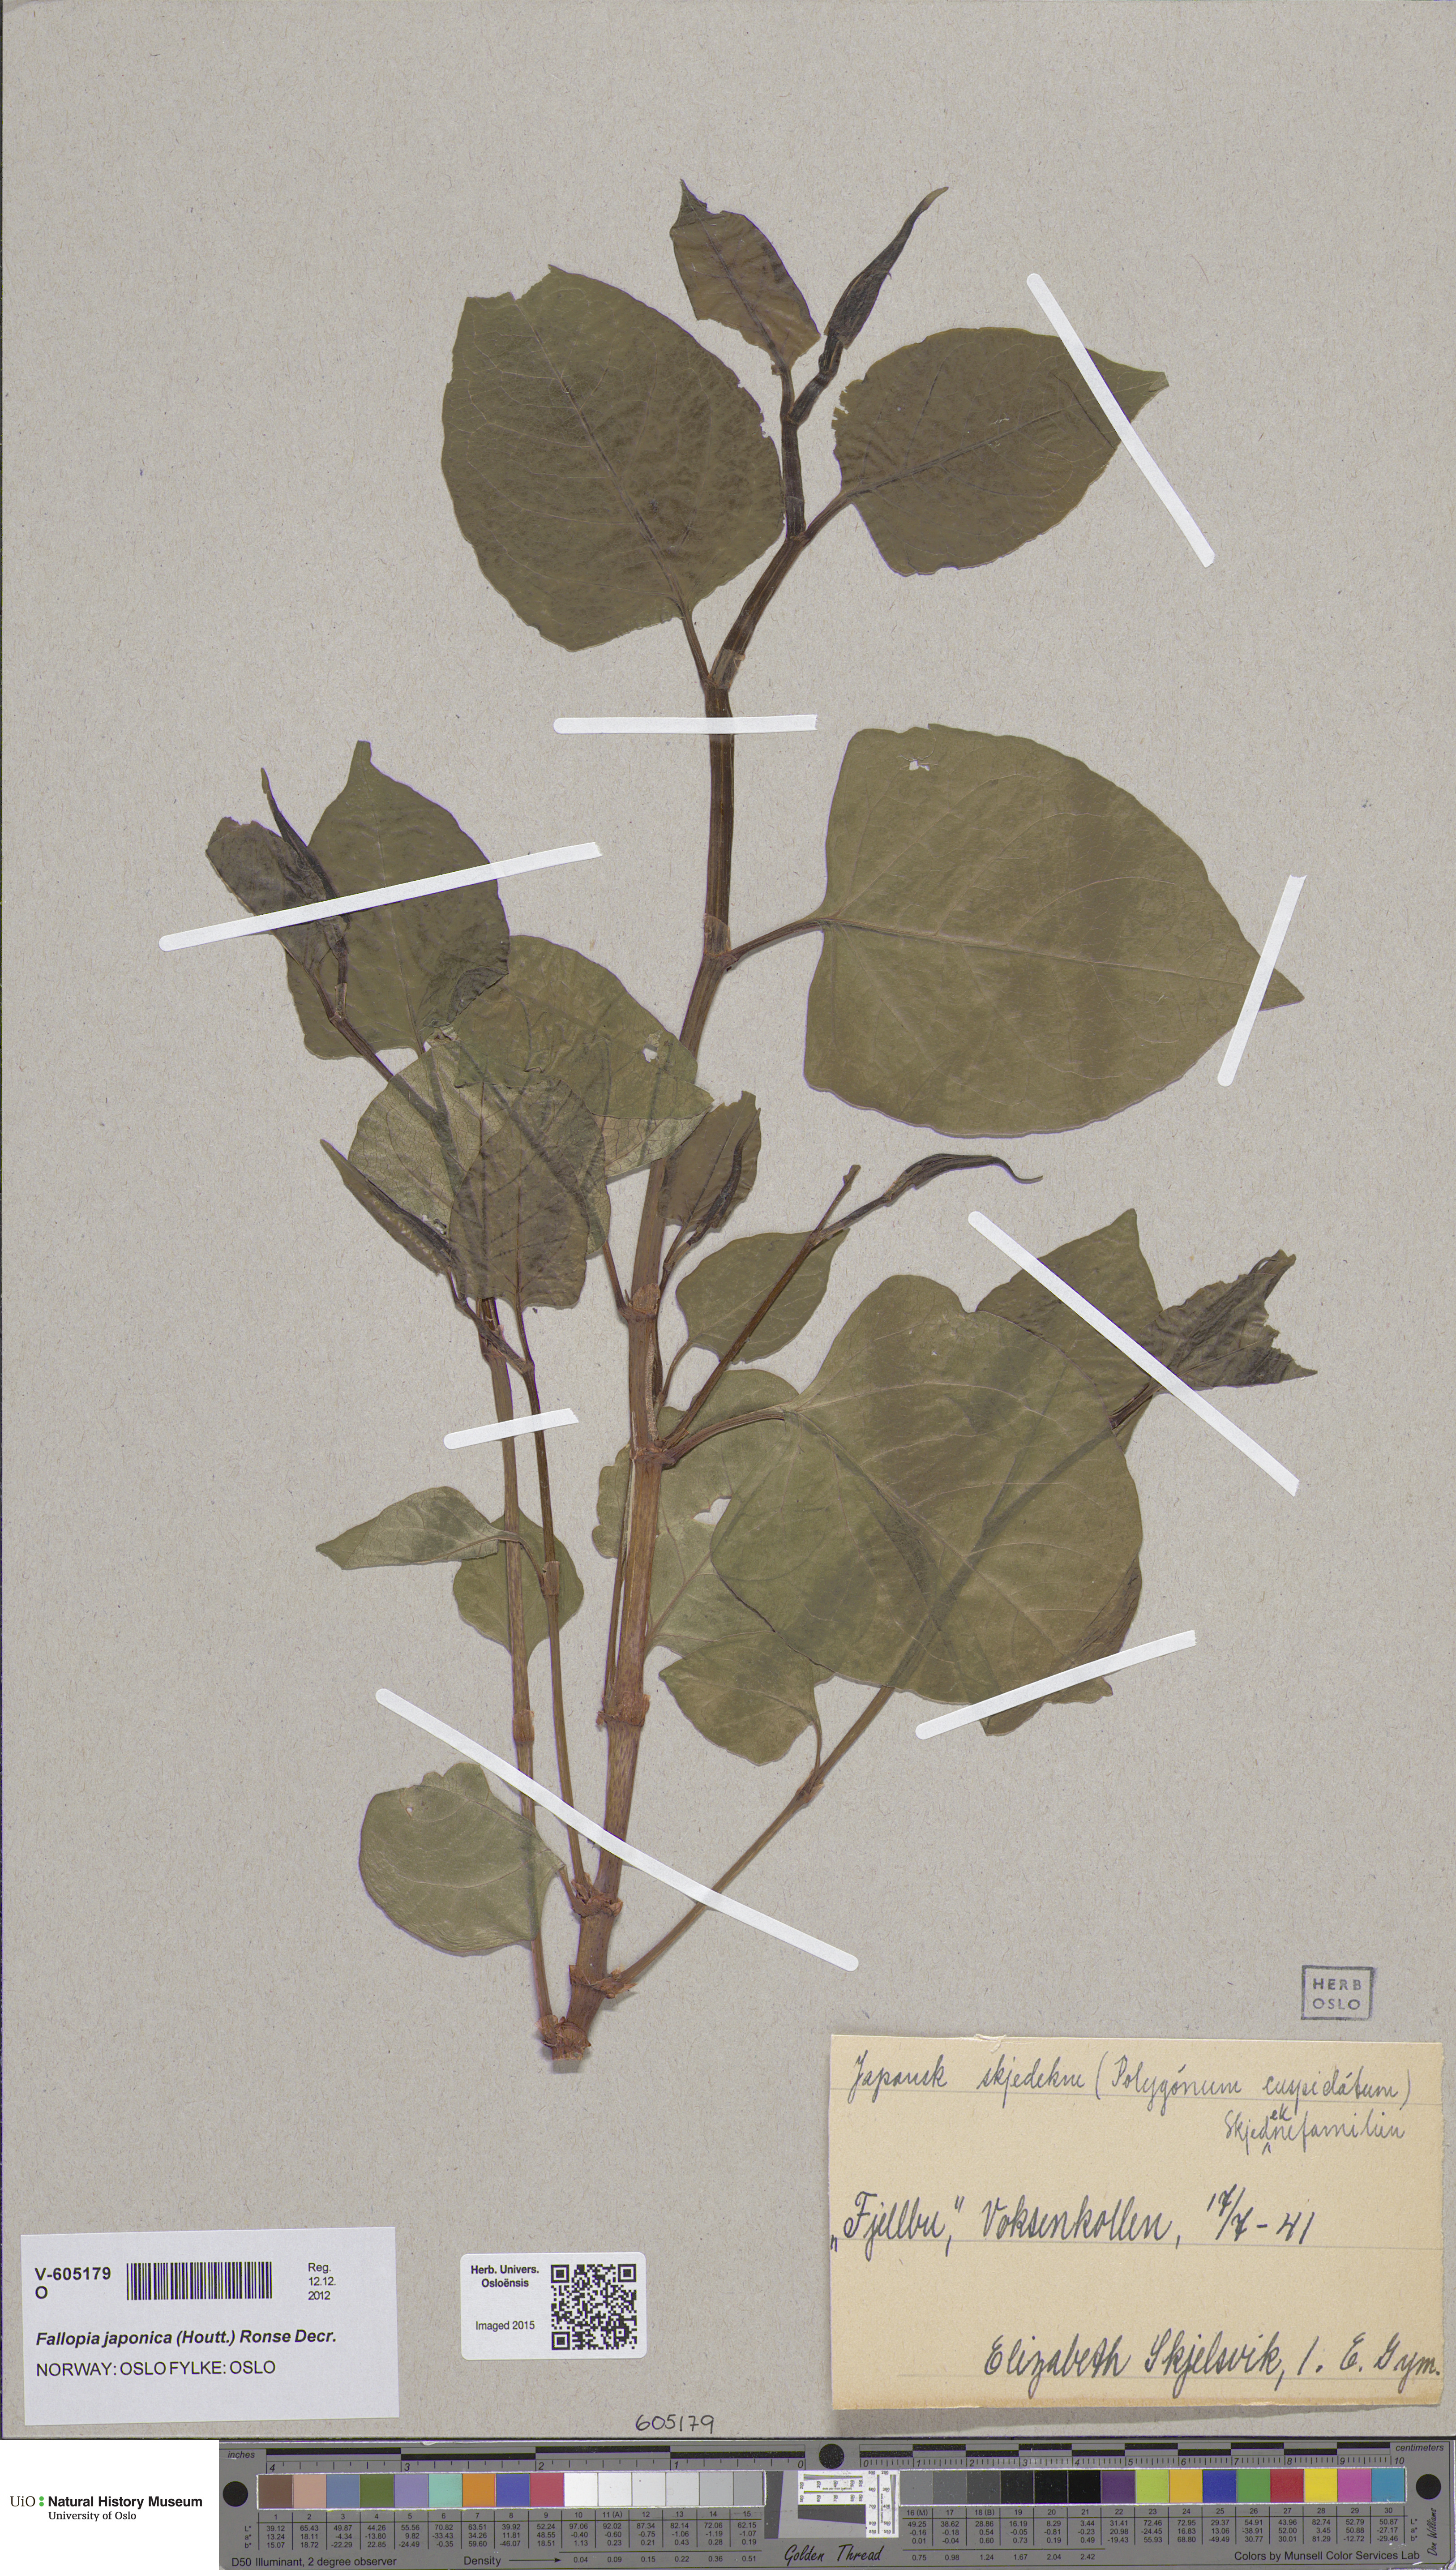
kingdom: Plantae
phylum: Tracheophyta
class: Magnoliopsida
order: Caryophyllales
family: Polygonaceae
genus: Reynoutria
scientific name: Reynoutria japonica
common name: Japanese knotweed
